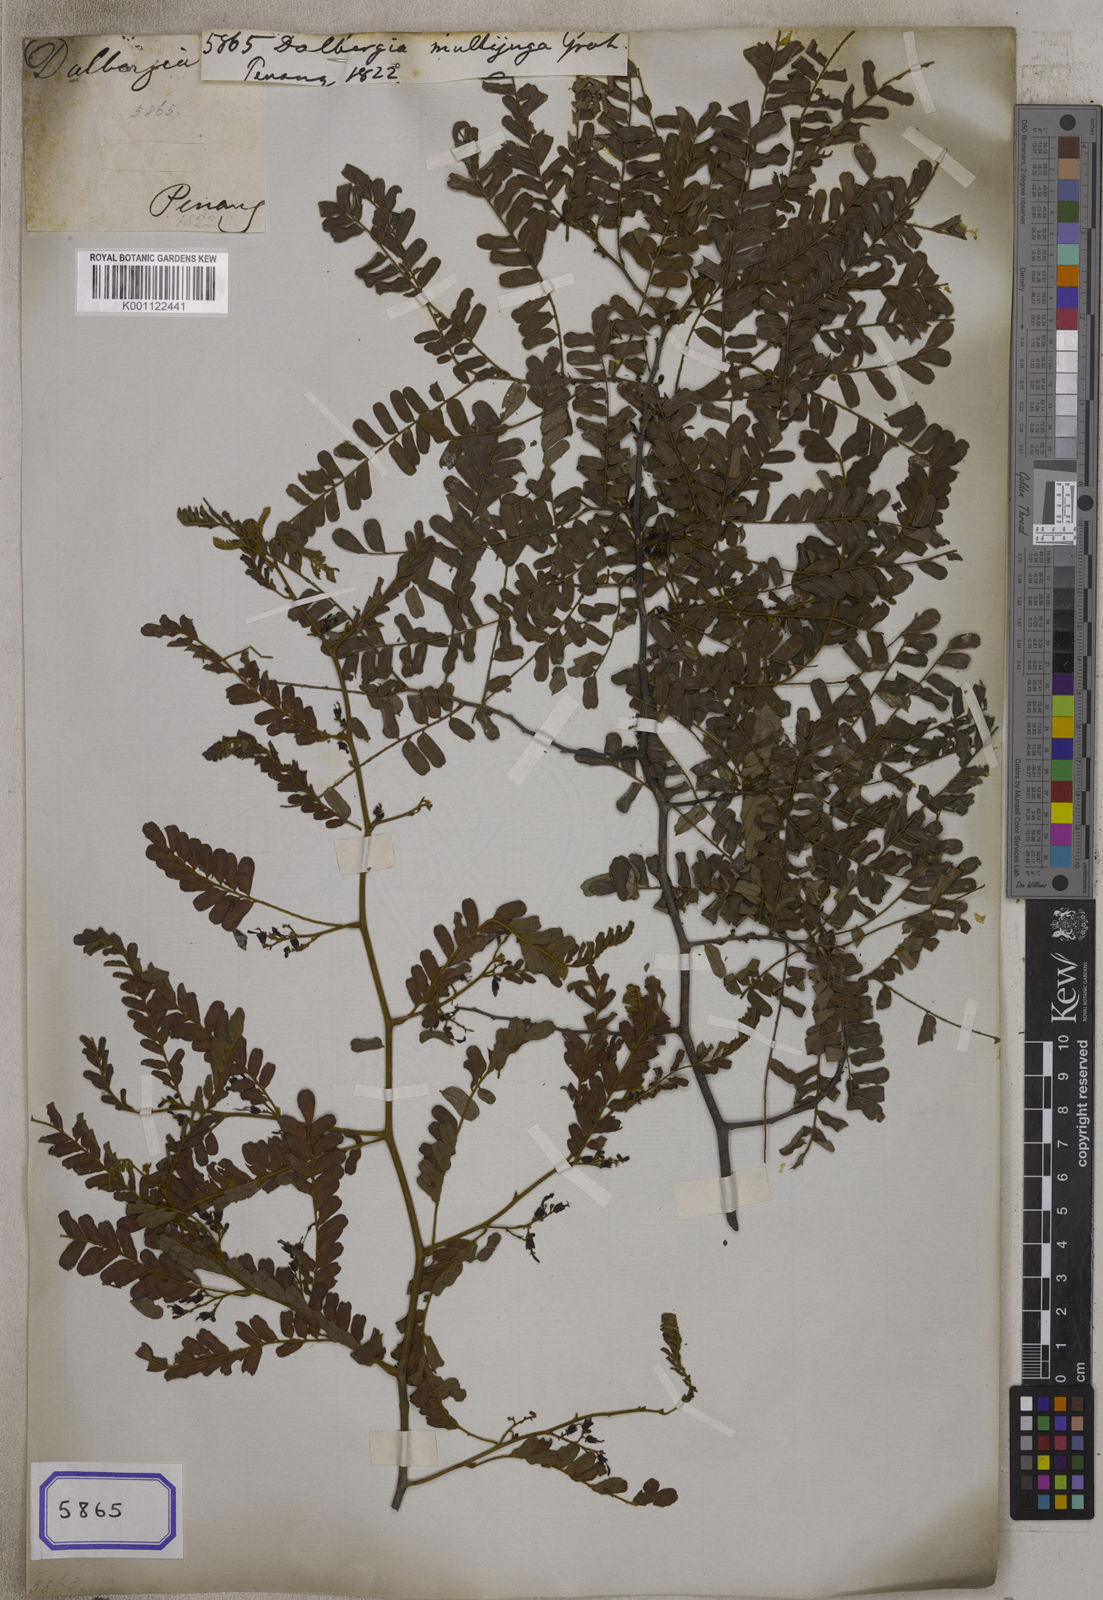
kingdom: Plantae
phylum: Tracheophyta
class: Magnoliopsida
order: Fabales
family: Fabaceae
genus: Dalbergia
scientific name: Dalbergia pinnata
